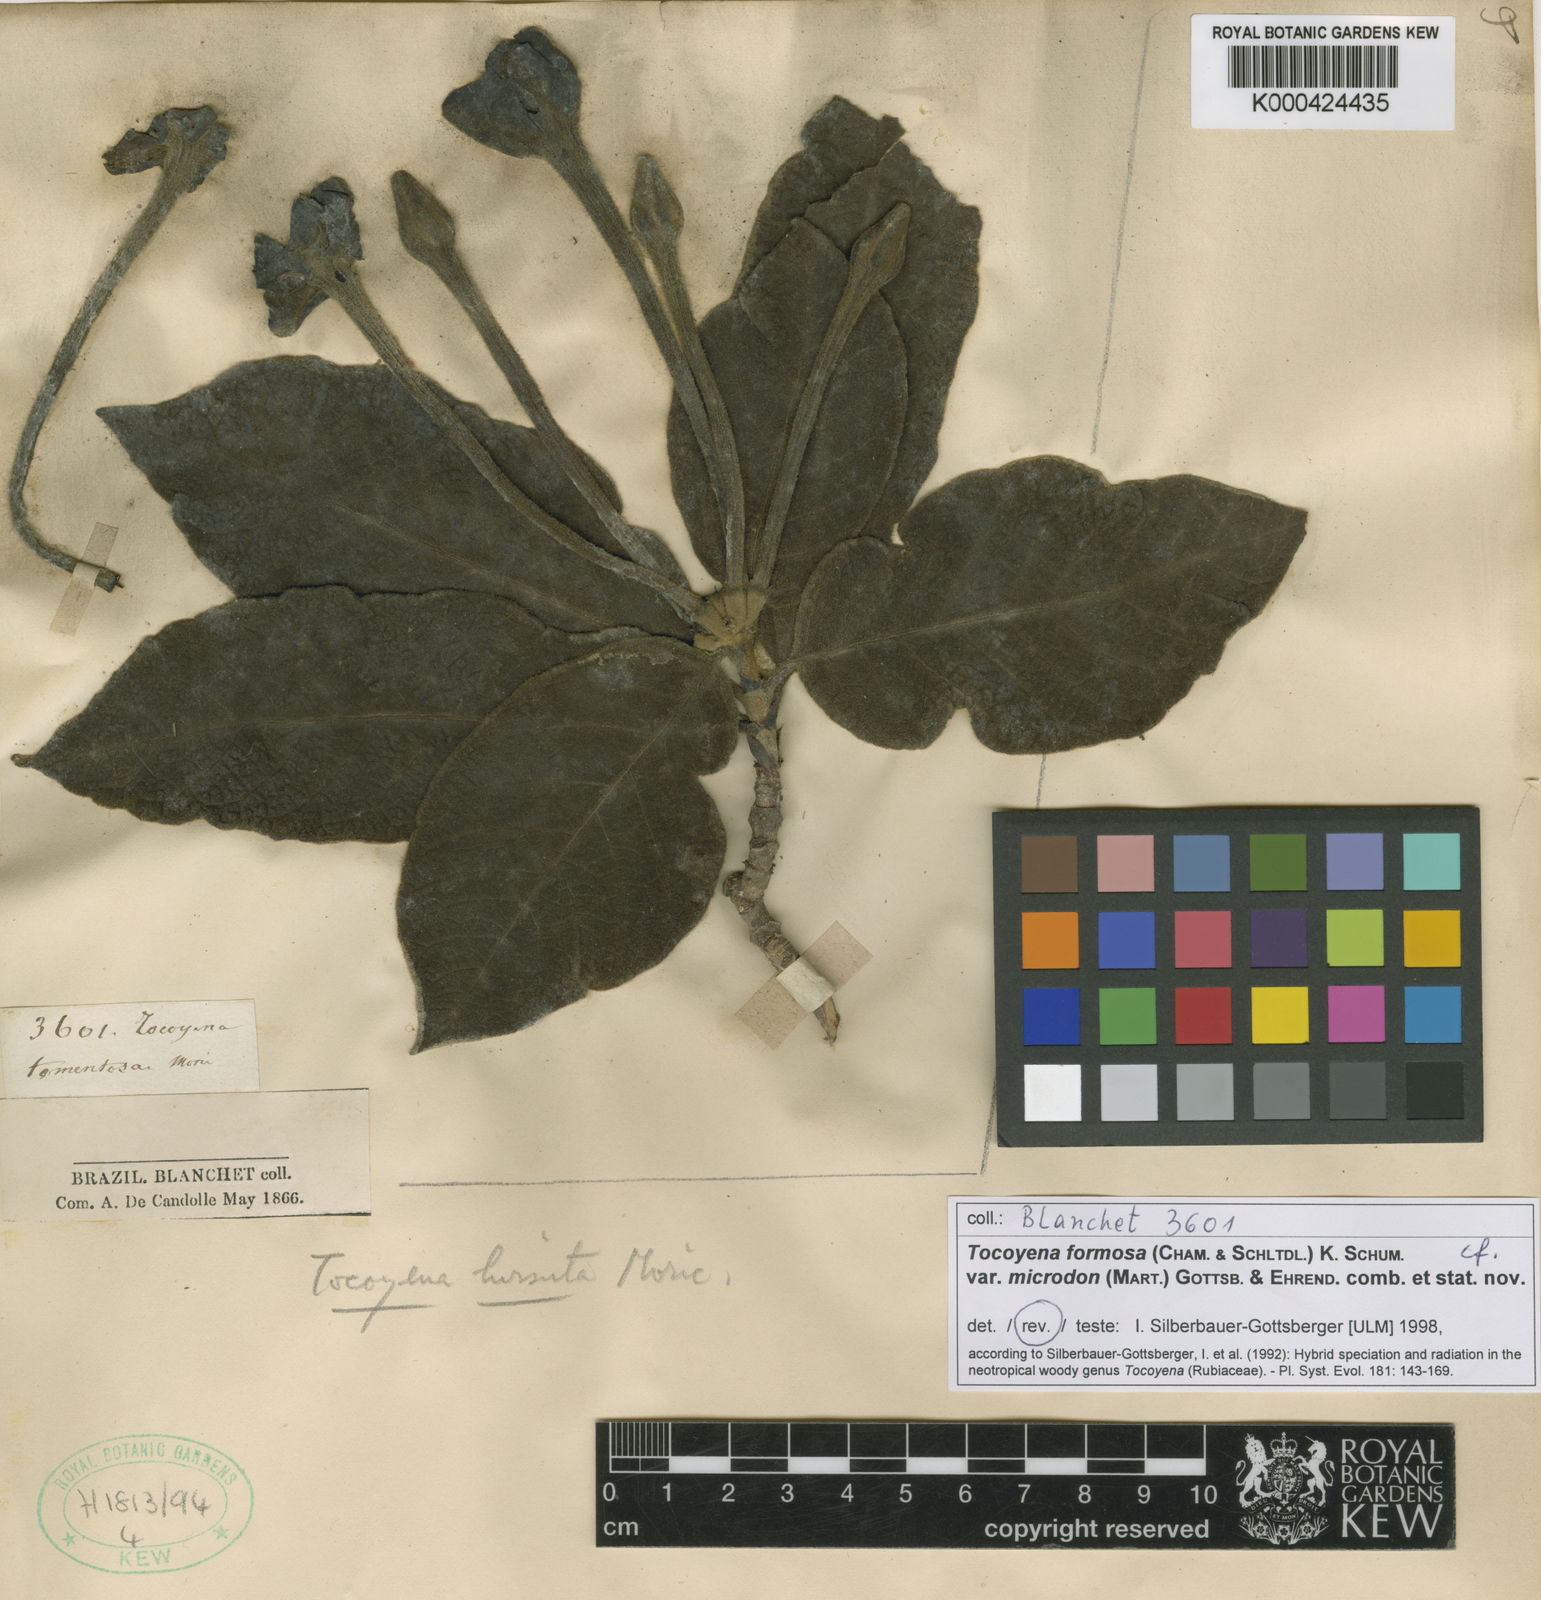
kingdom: Plantae
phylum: Tracheophyta
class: Magnoliopsida
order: Gentianales
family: Rubiaceae
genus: Tocoyena
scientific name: Tocoyena formosa
